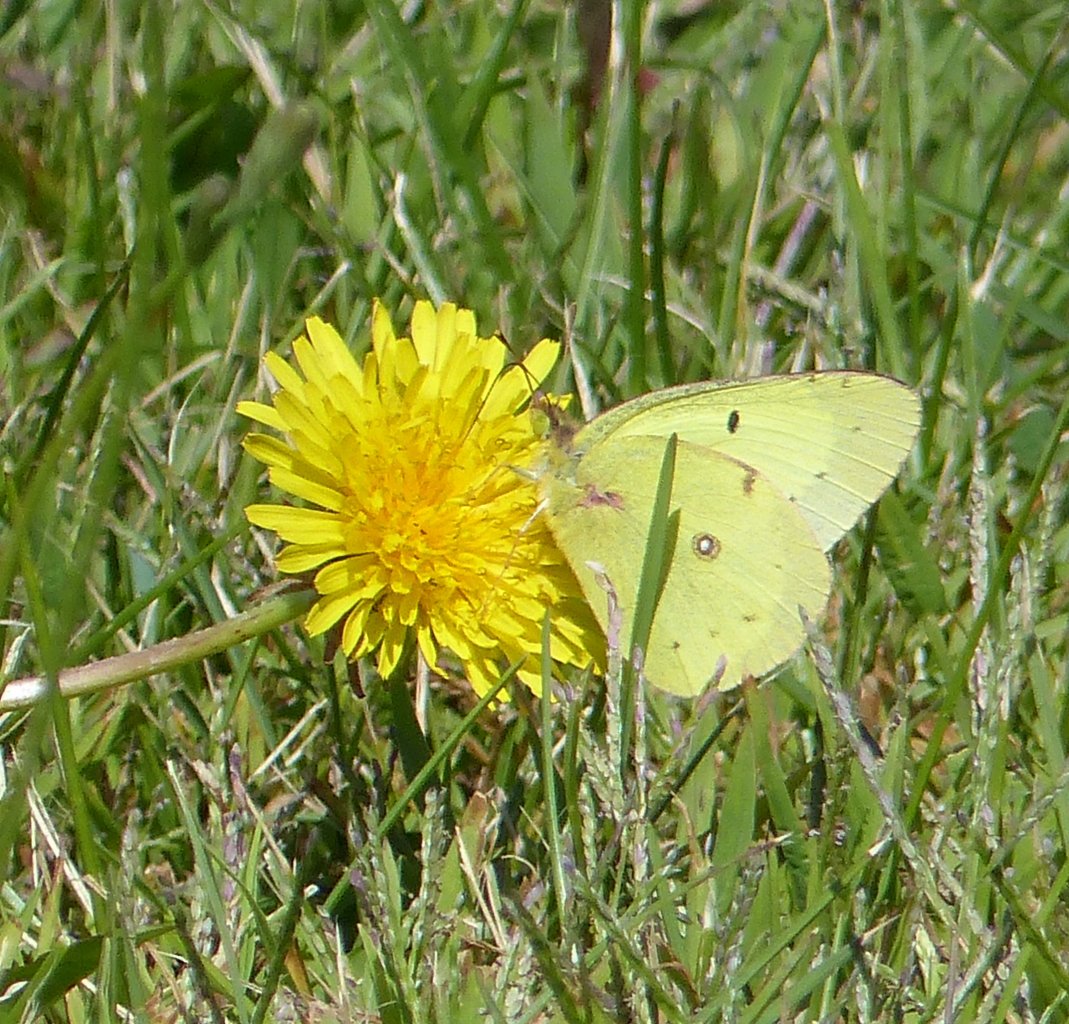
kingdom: Animalia
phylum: Arthropoda
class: Insecta
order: Lepidoptera
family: Pieridae
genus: Colias
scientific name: Colias
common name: Clouded Yellows
